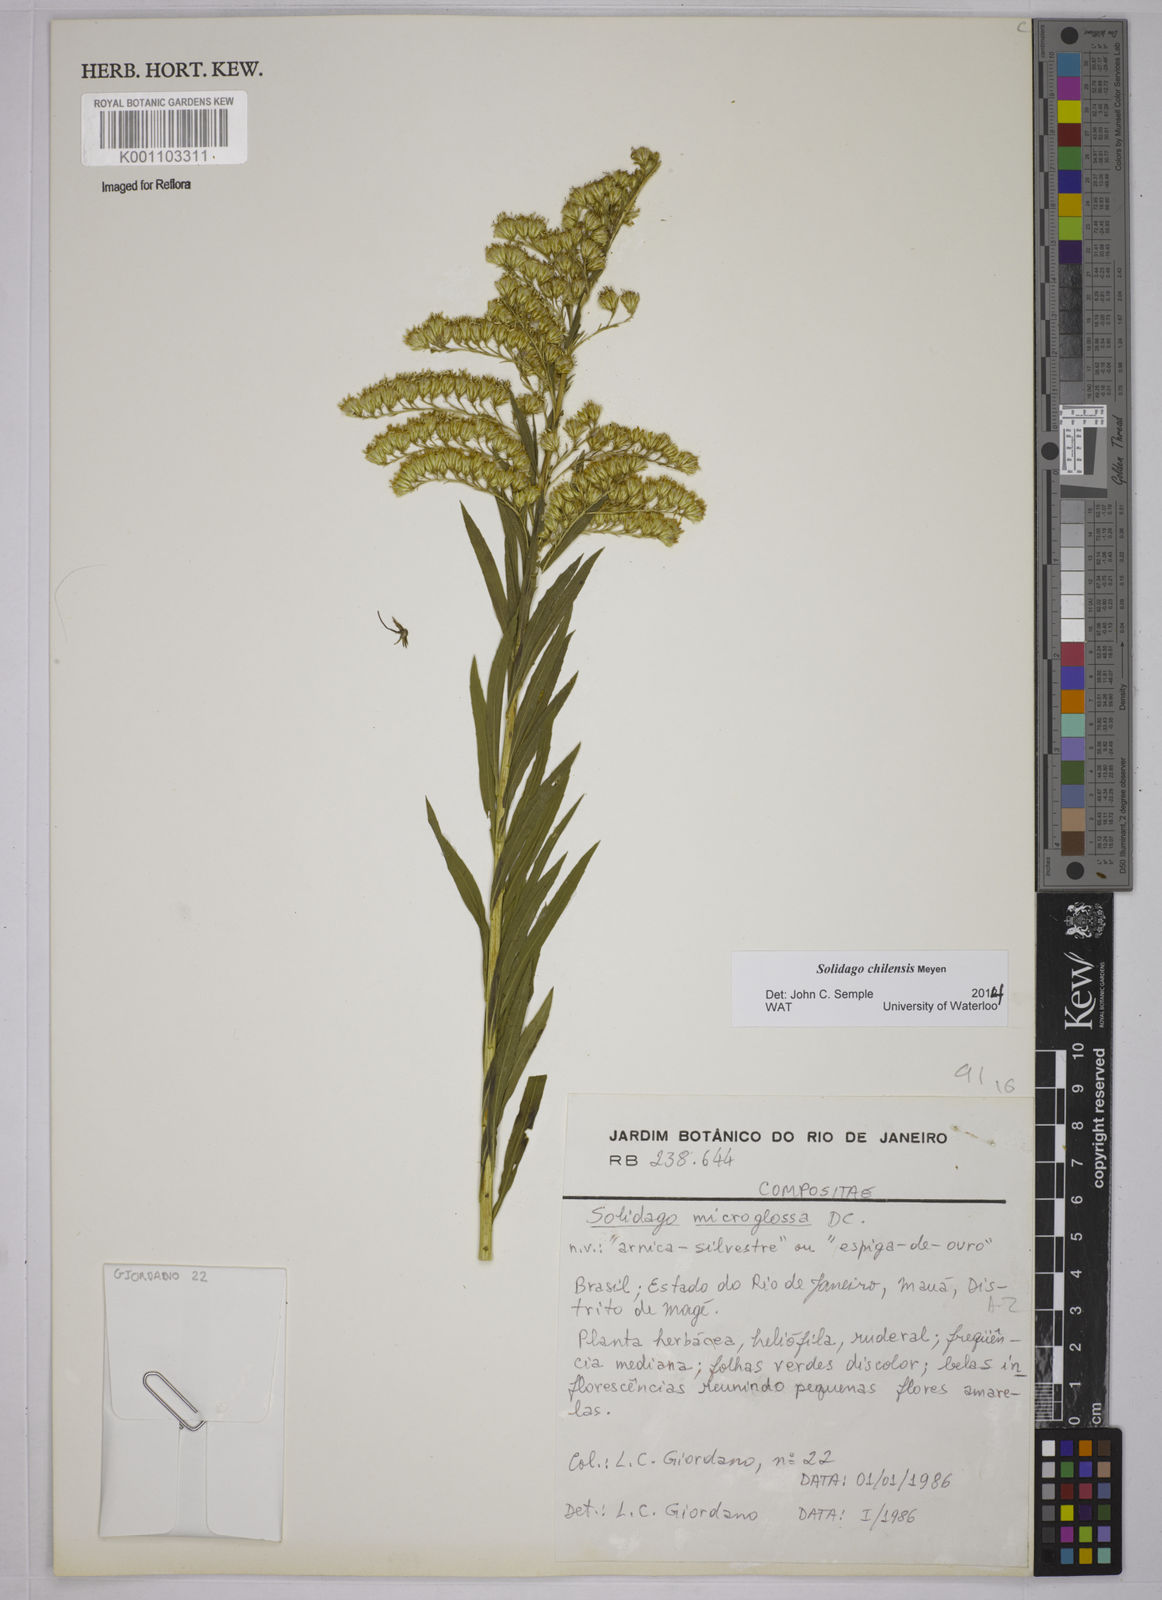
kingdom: Plantae
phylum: Tracheophyta
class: Magnoliopsida
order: Asterales
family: Asteraceae
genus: Solidago
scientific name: Solidago chilensis
